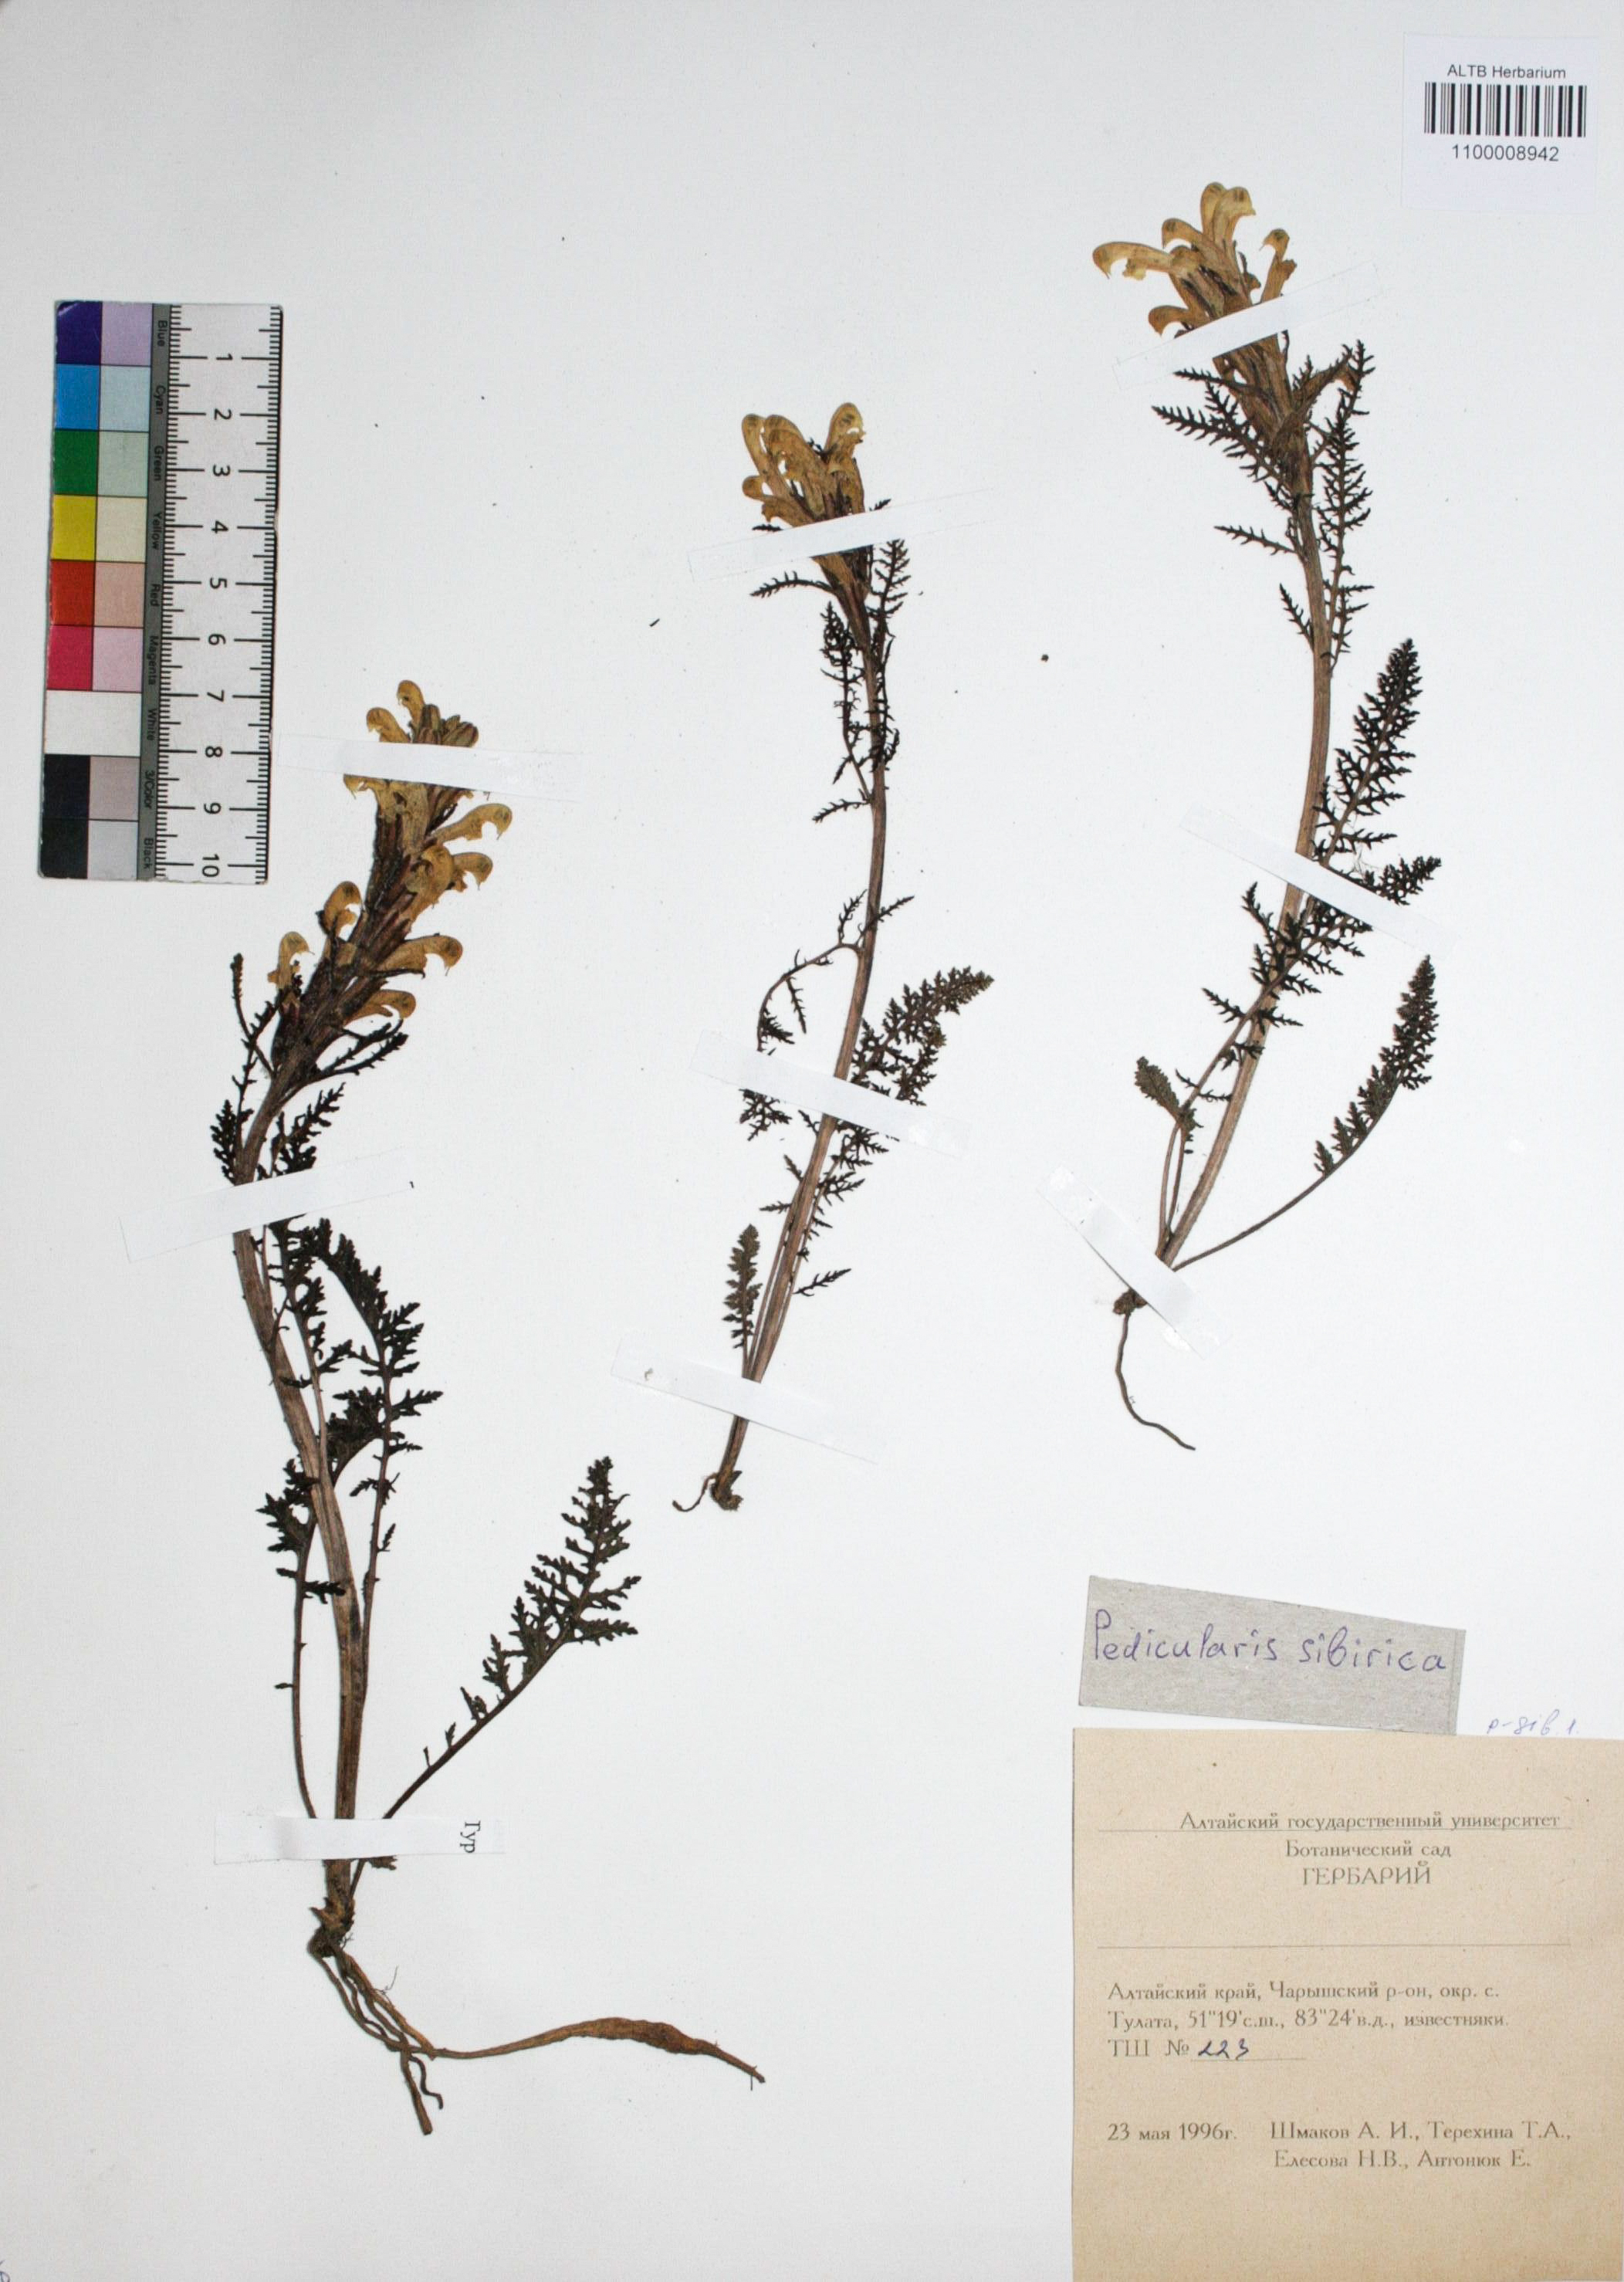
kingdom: Plantae
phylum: Tracheophyta
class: Magnoliopsida
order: Lamiales
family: Orobanchaceae
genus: Pedicularis
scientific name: Pedicularis sibirica
